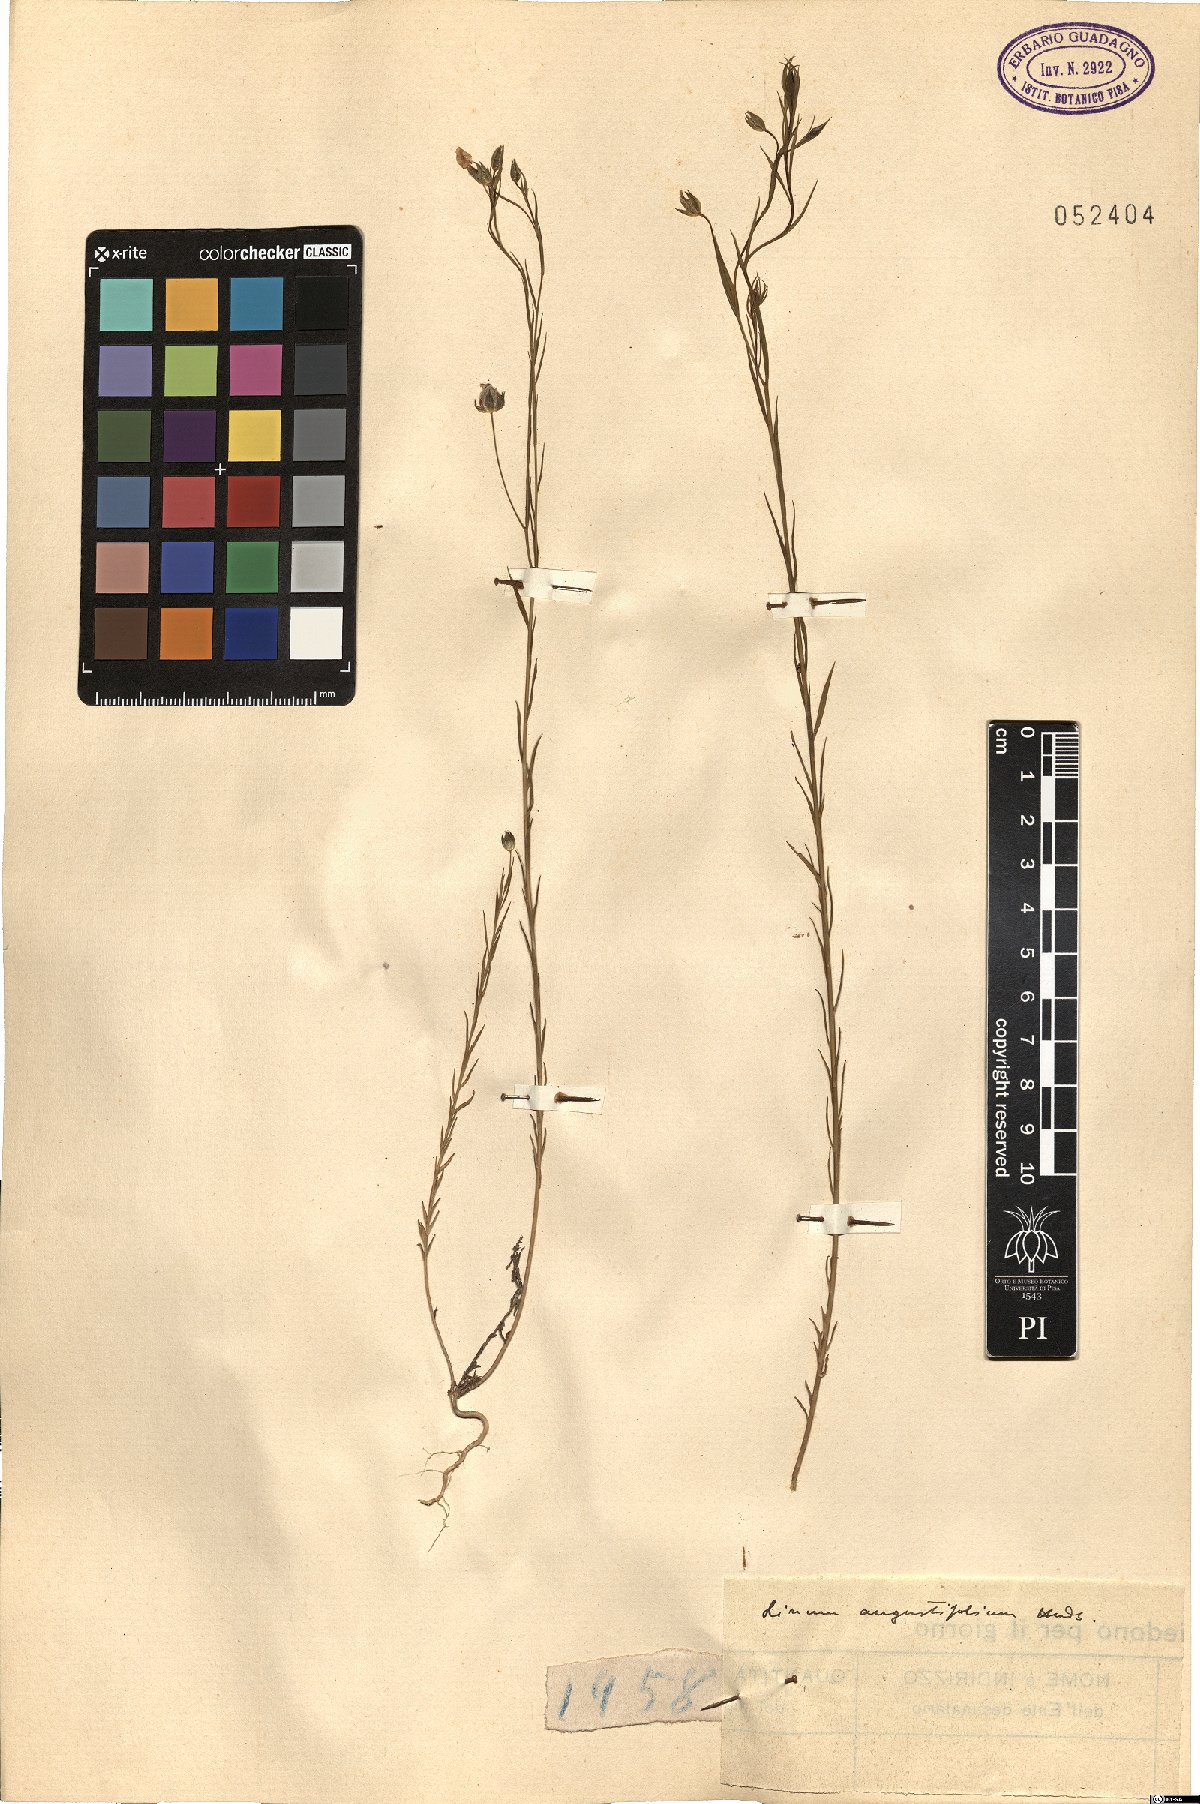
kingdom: Plantae
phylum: Tracheophyta
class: Magnoliopsida
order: Malpighiales
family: Linaceae
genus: Linum
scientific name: Linum bienne
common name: Pale flax
